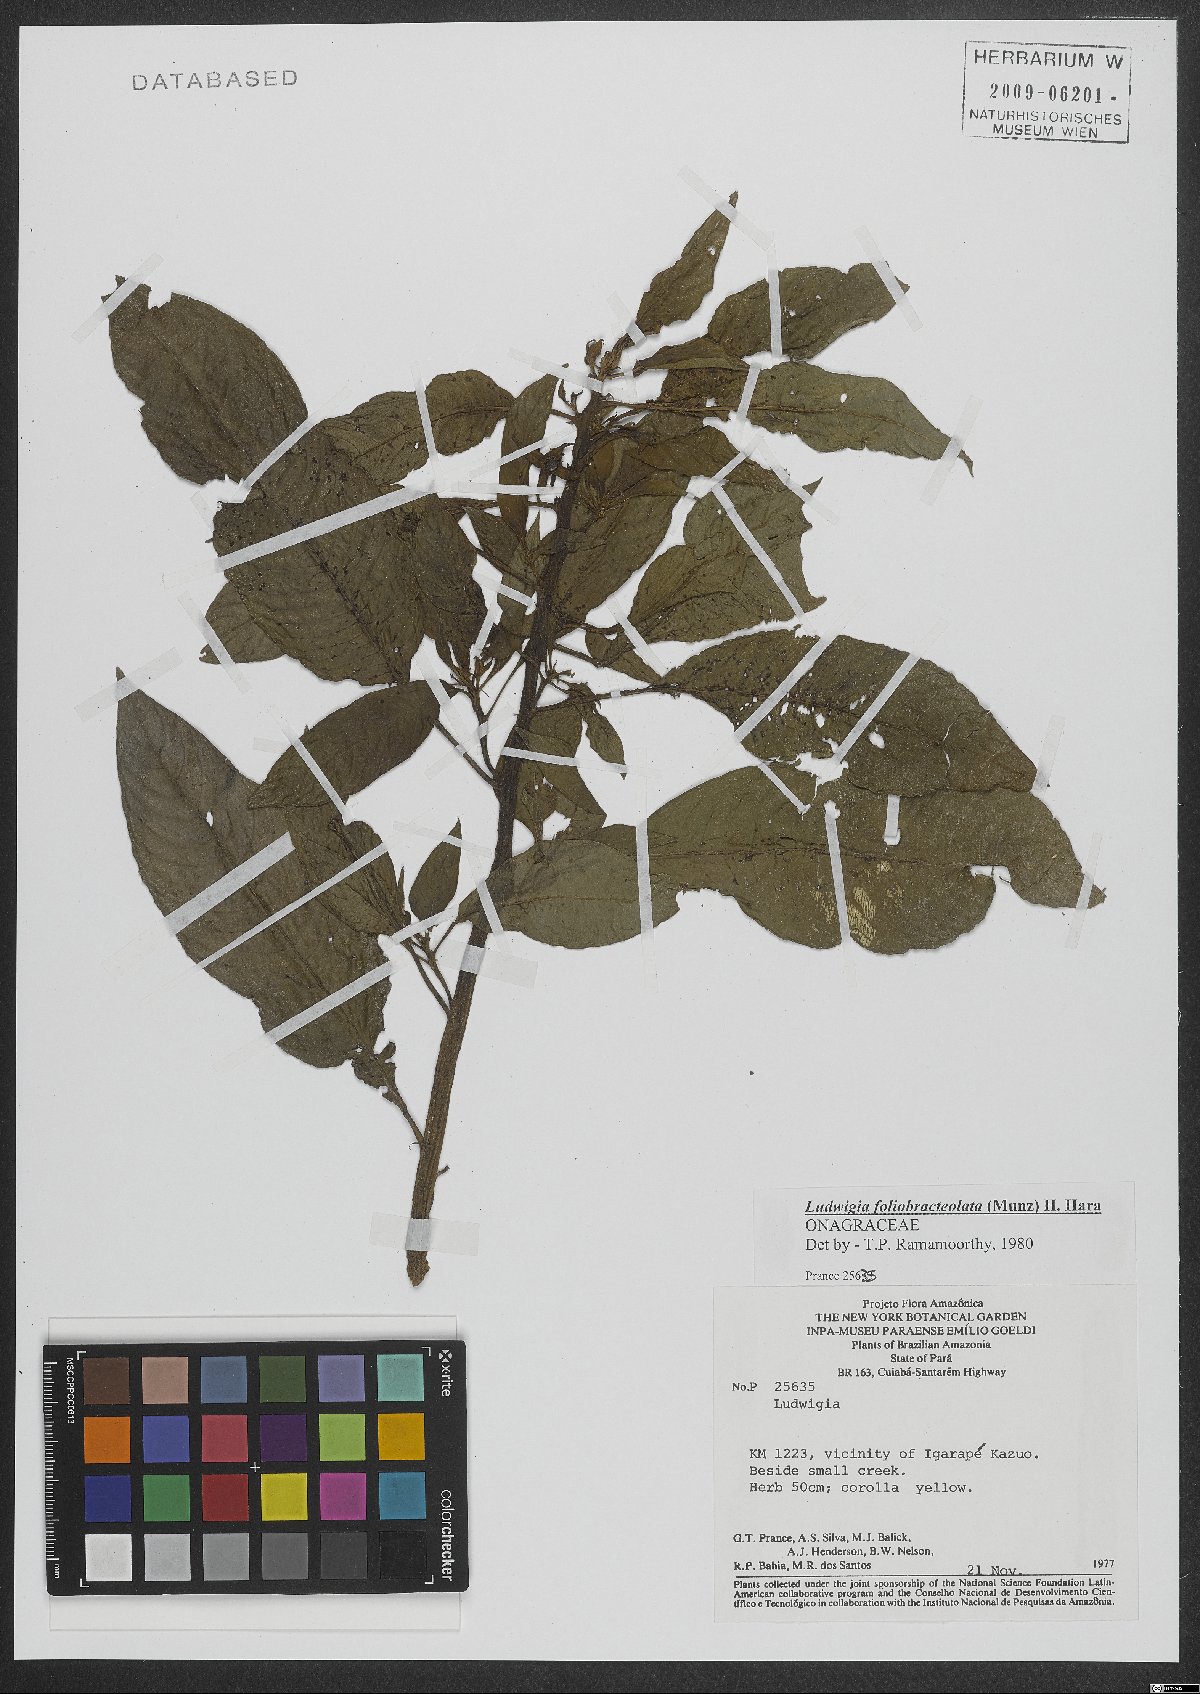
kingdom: Plantae
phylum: Tracheophyta
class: Magnoliopsida
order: Myrtales
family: Onagraceae
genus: Ludwigia
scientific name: Ludwigia foliobracteolata
